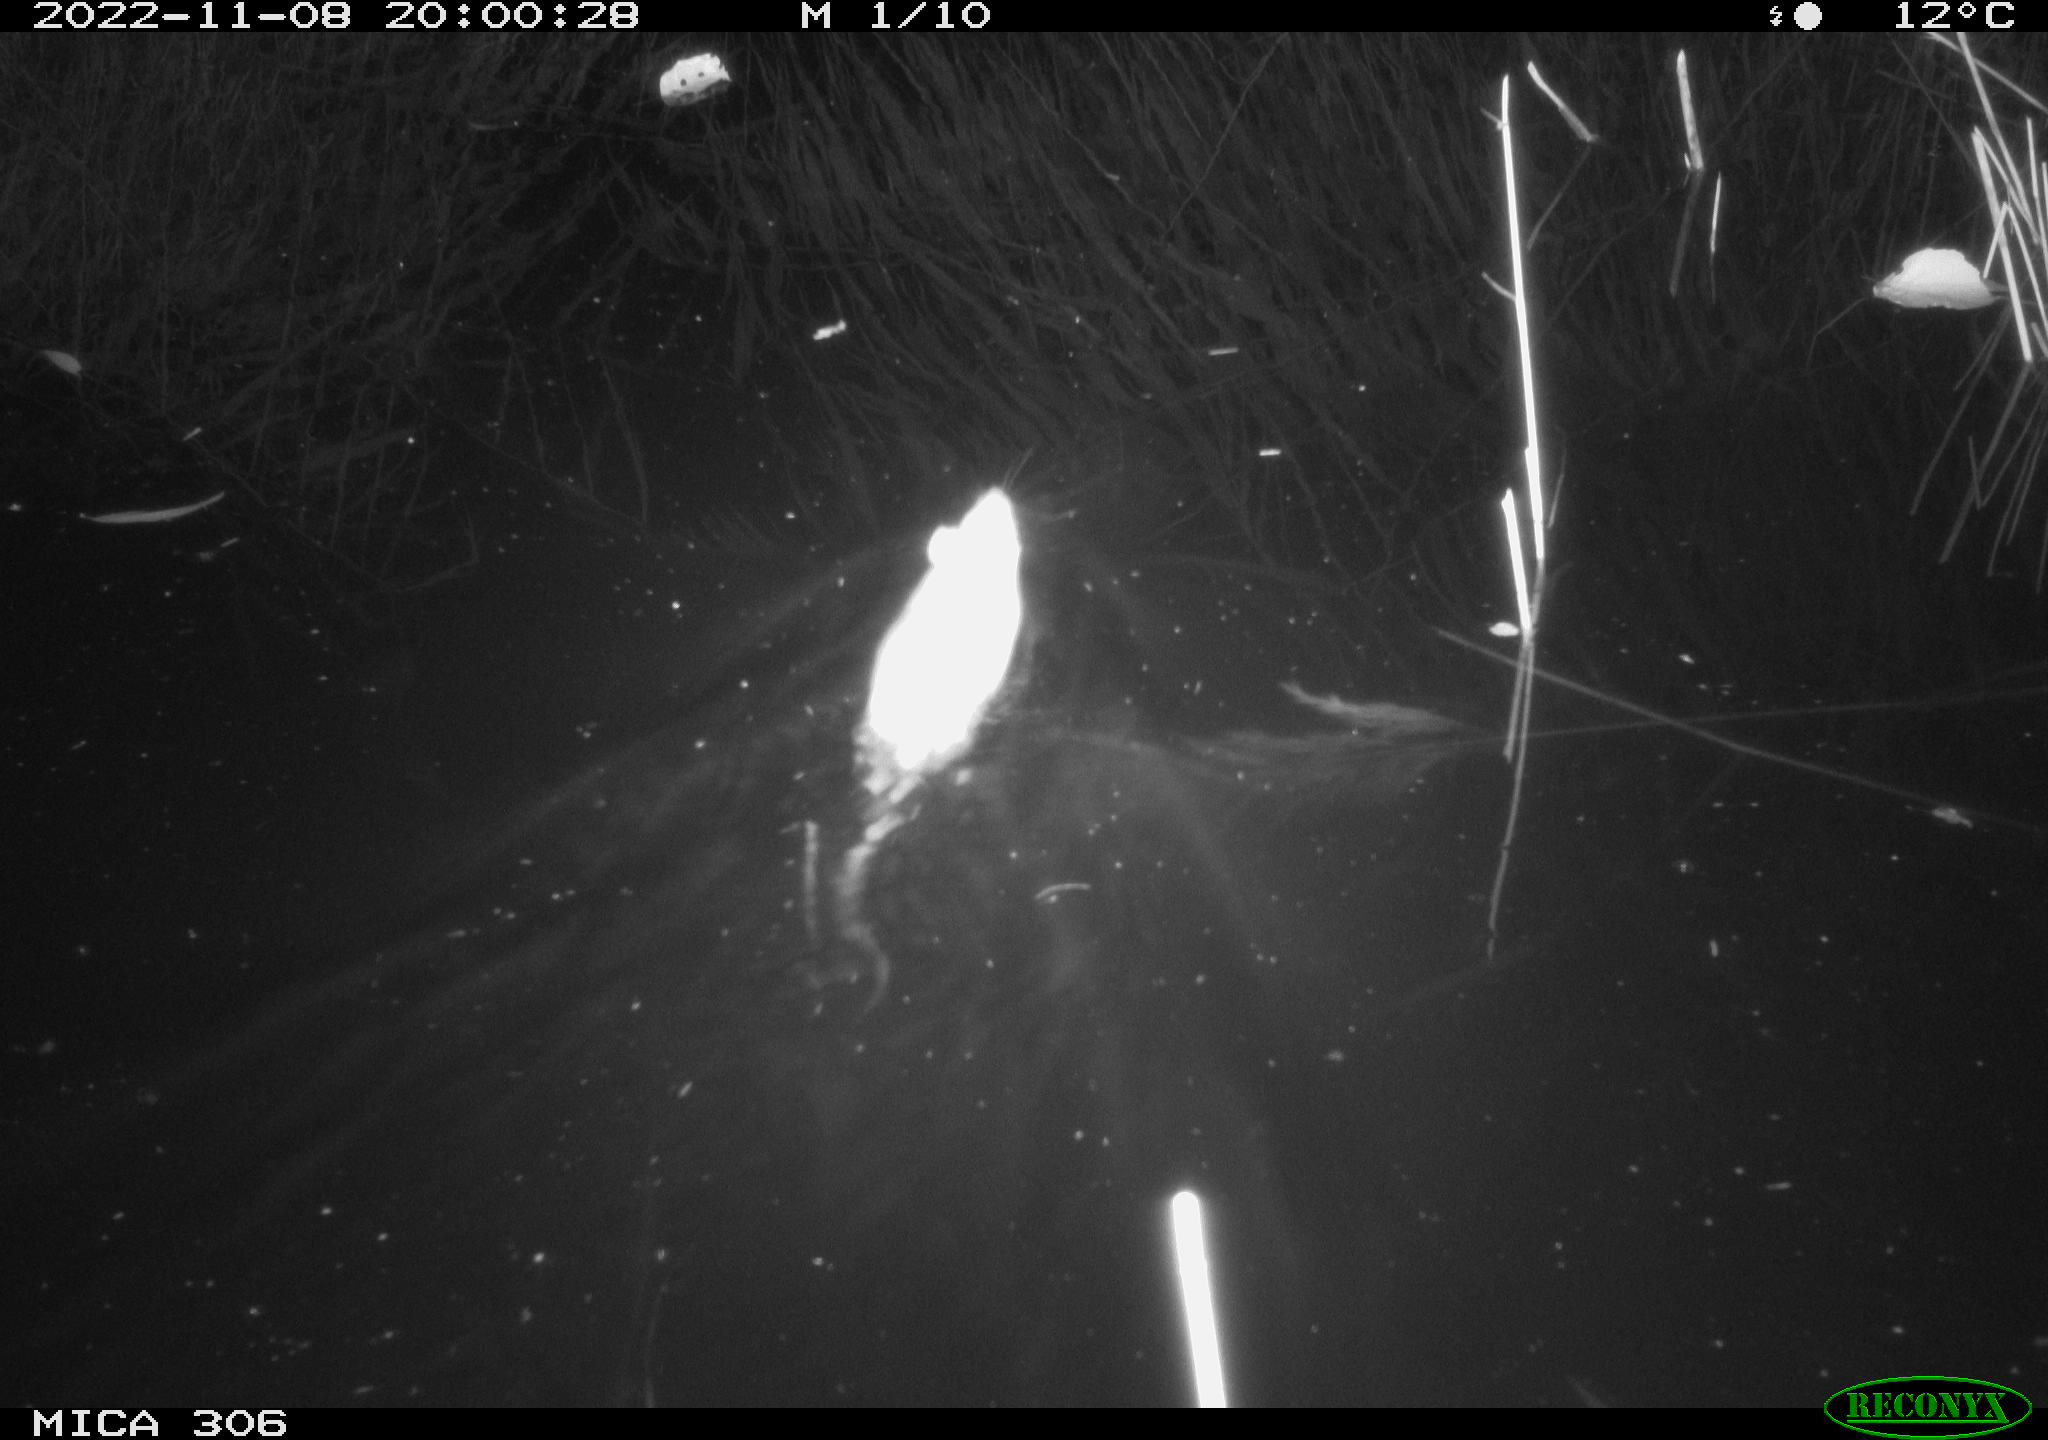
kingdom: Animalia
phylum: Chordata
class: Mammalia
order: Rodentia
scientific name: Rodentia
